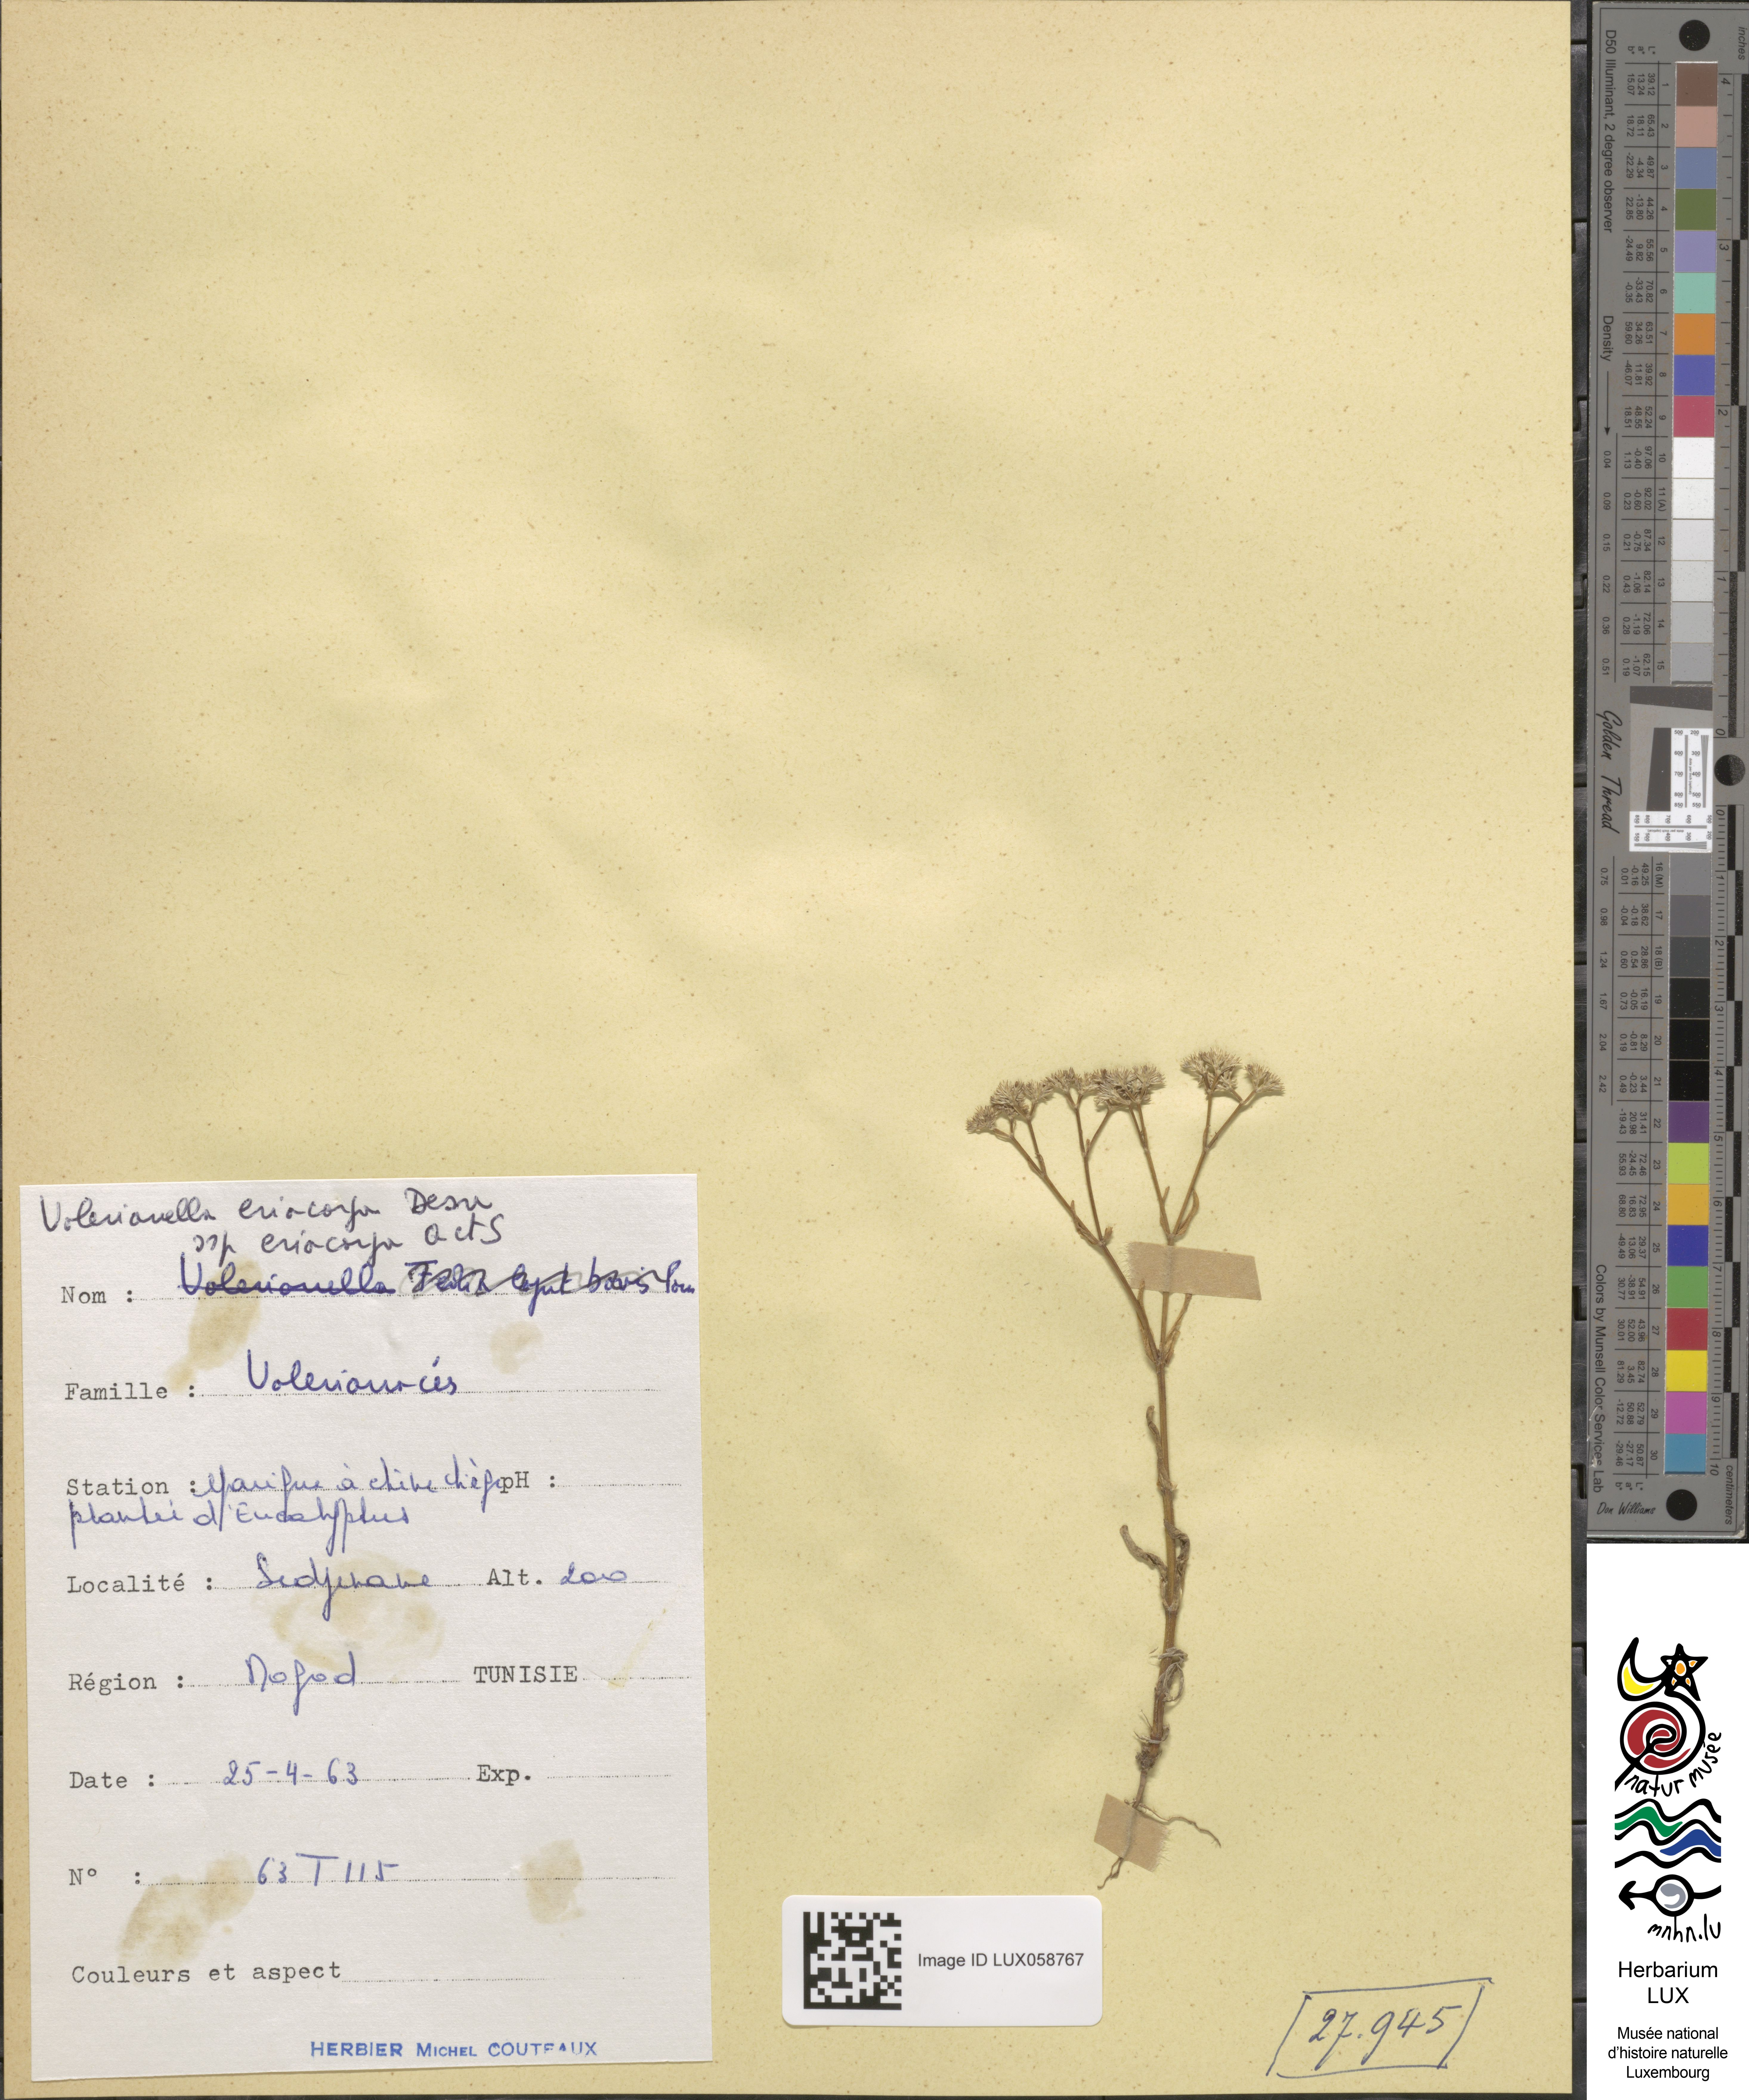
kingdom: Plantae
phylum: Tracheophyta
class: Magnoliopsida
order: Dipsacales
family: Caprifoliaceae
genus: Valerianella
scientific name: Valerianella eriocarpa
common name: Hairy-fruited cornsalad
